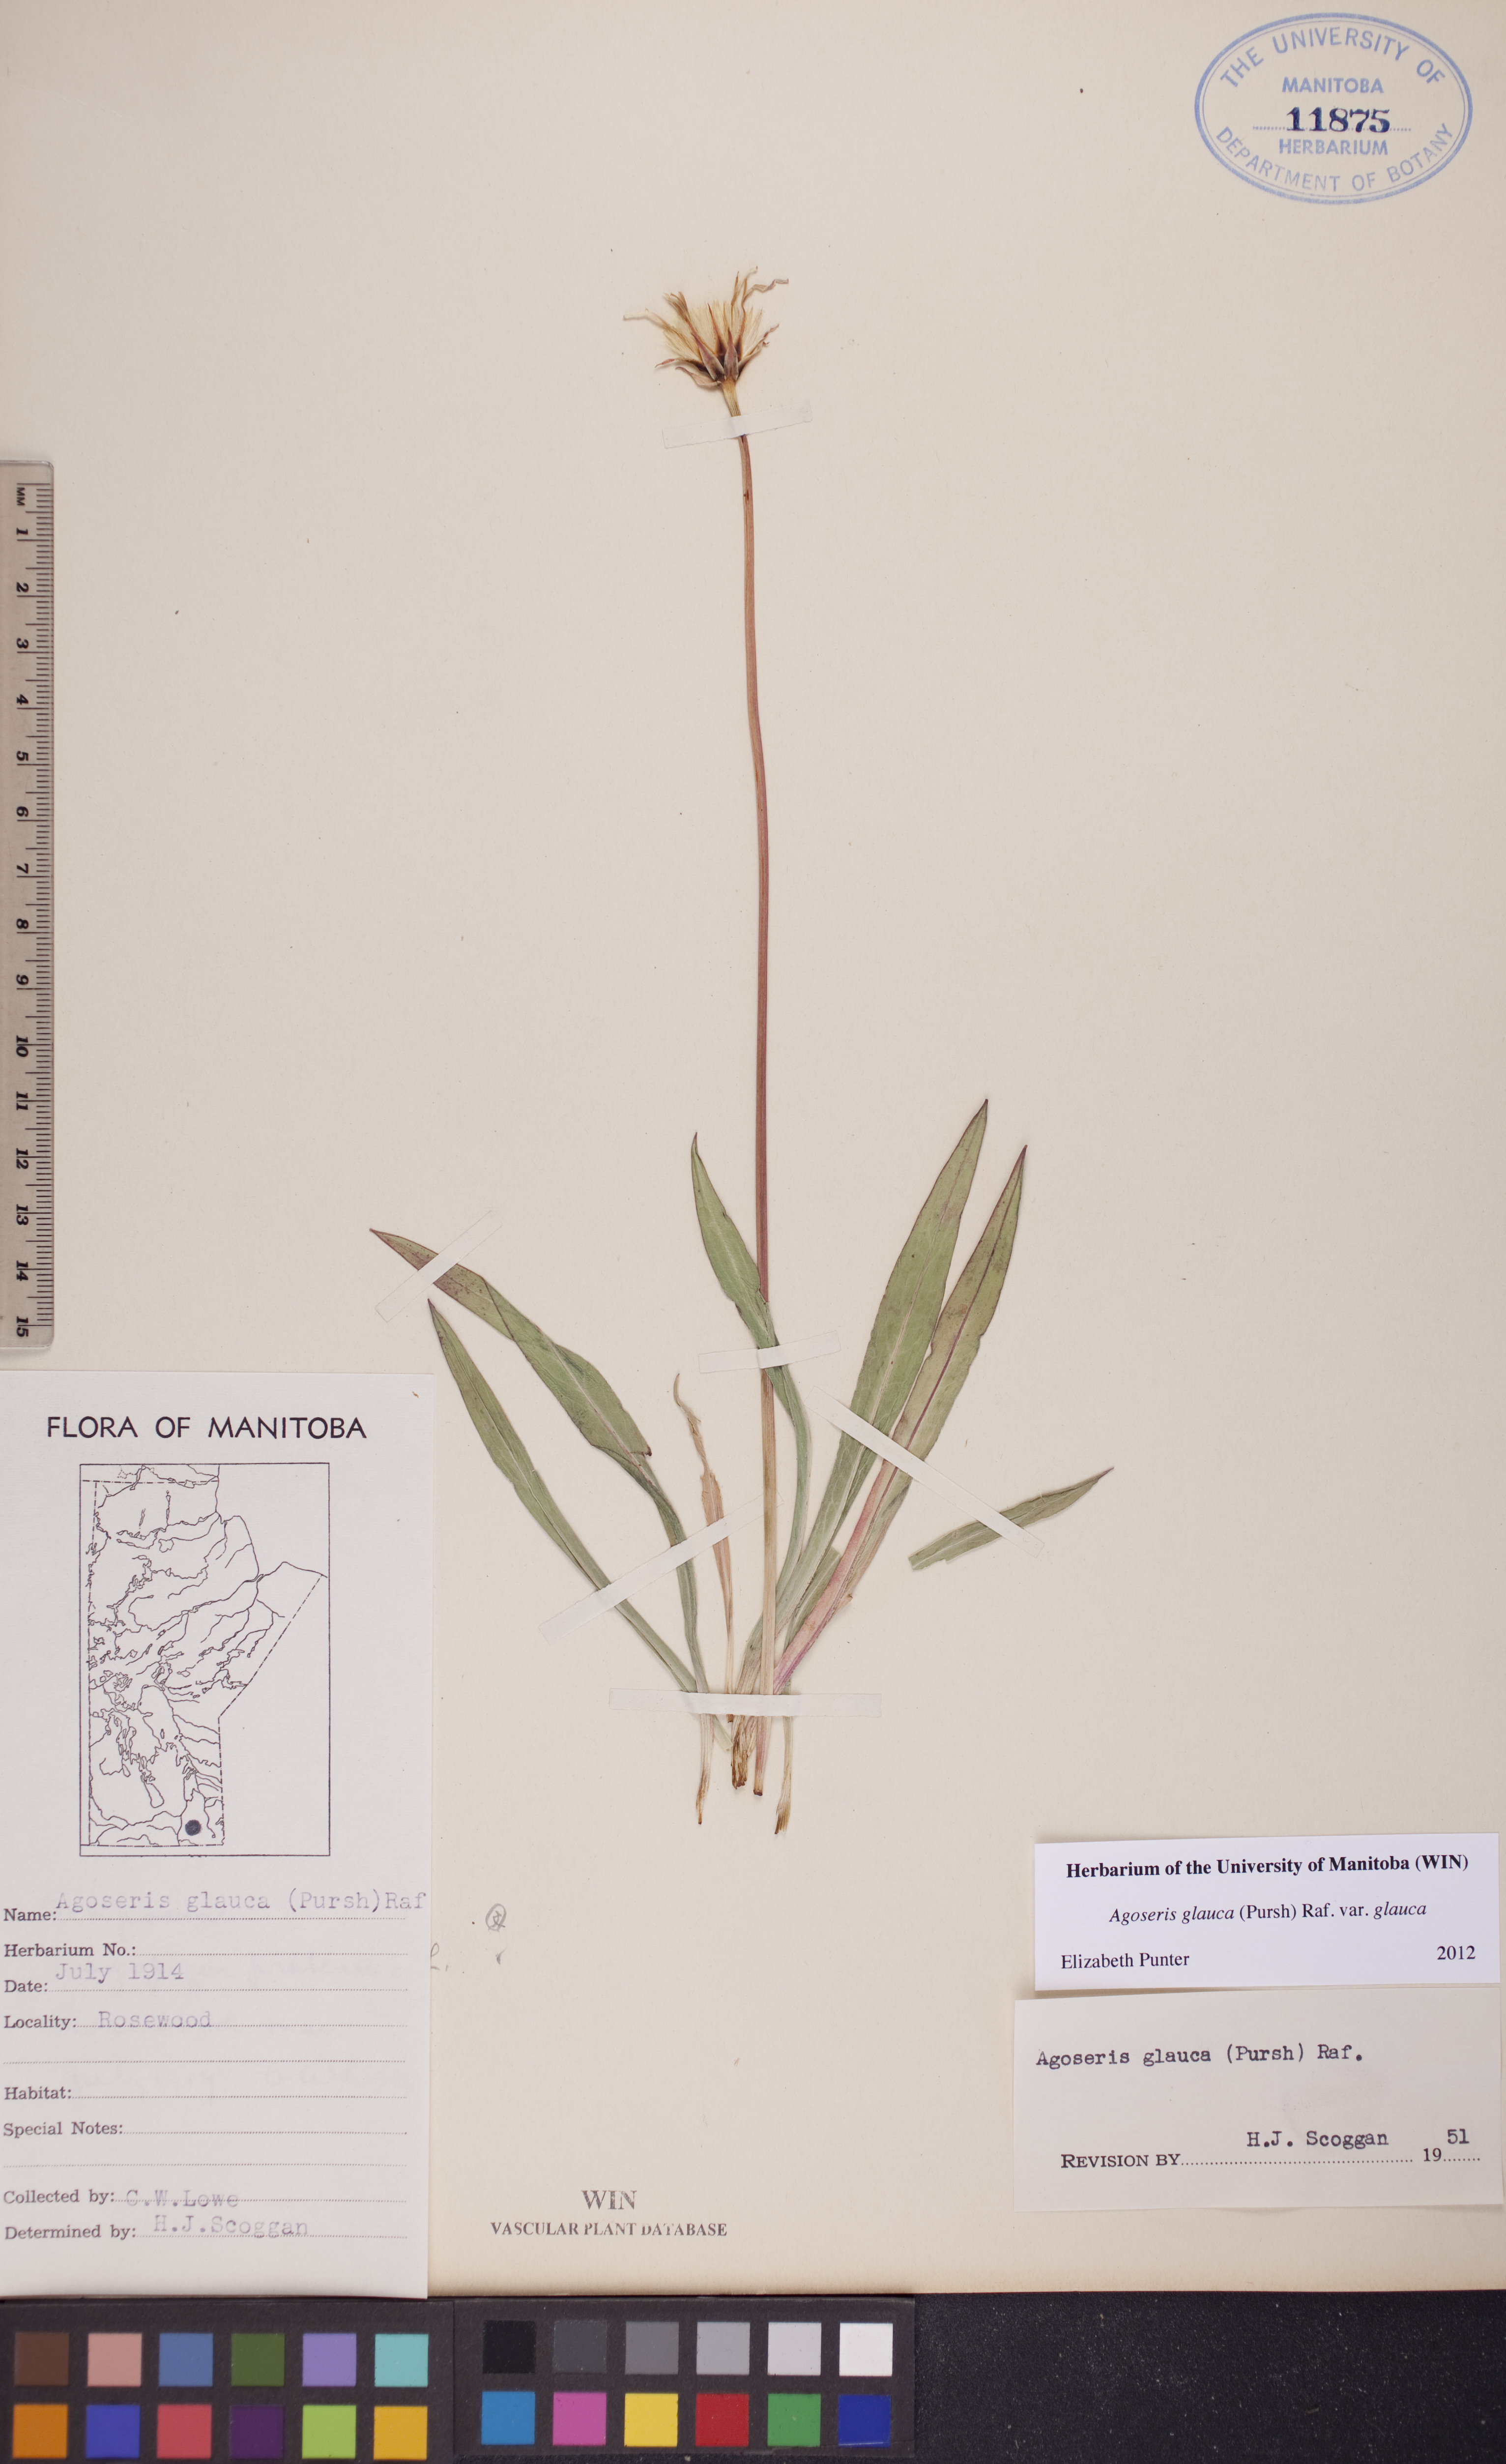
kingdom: Plantae
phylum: Tracheophyta
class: Magnoliopsida
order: Asterales
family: Asteraceae
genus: Agoseris
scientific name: Agoseris glauca
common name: Prairie agoseris
